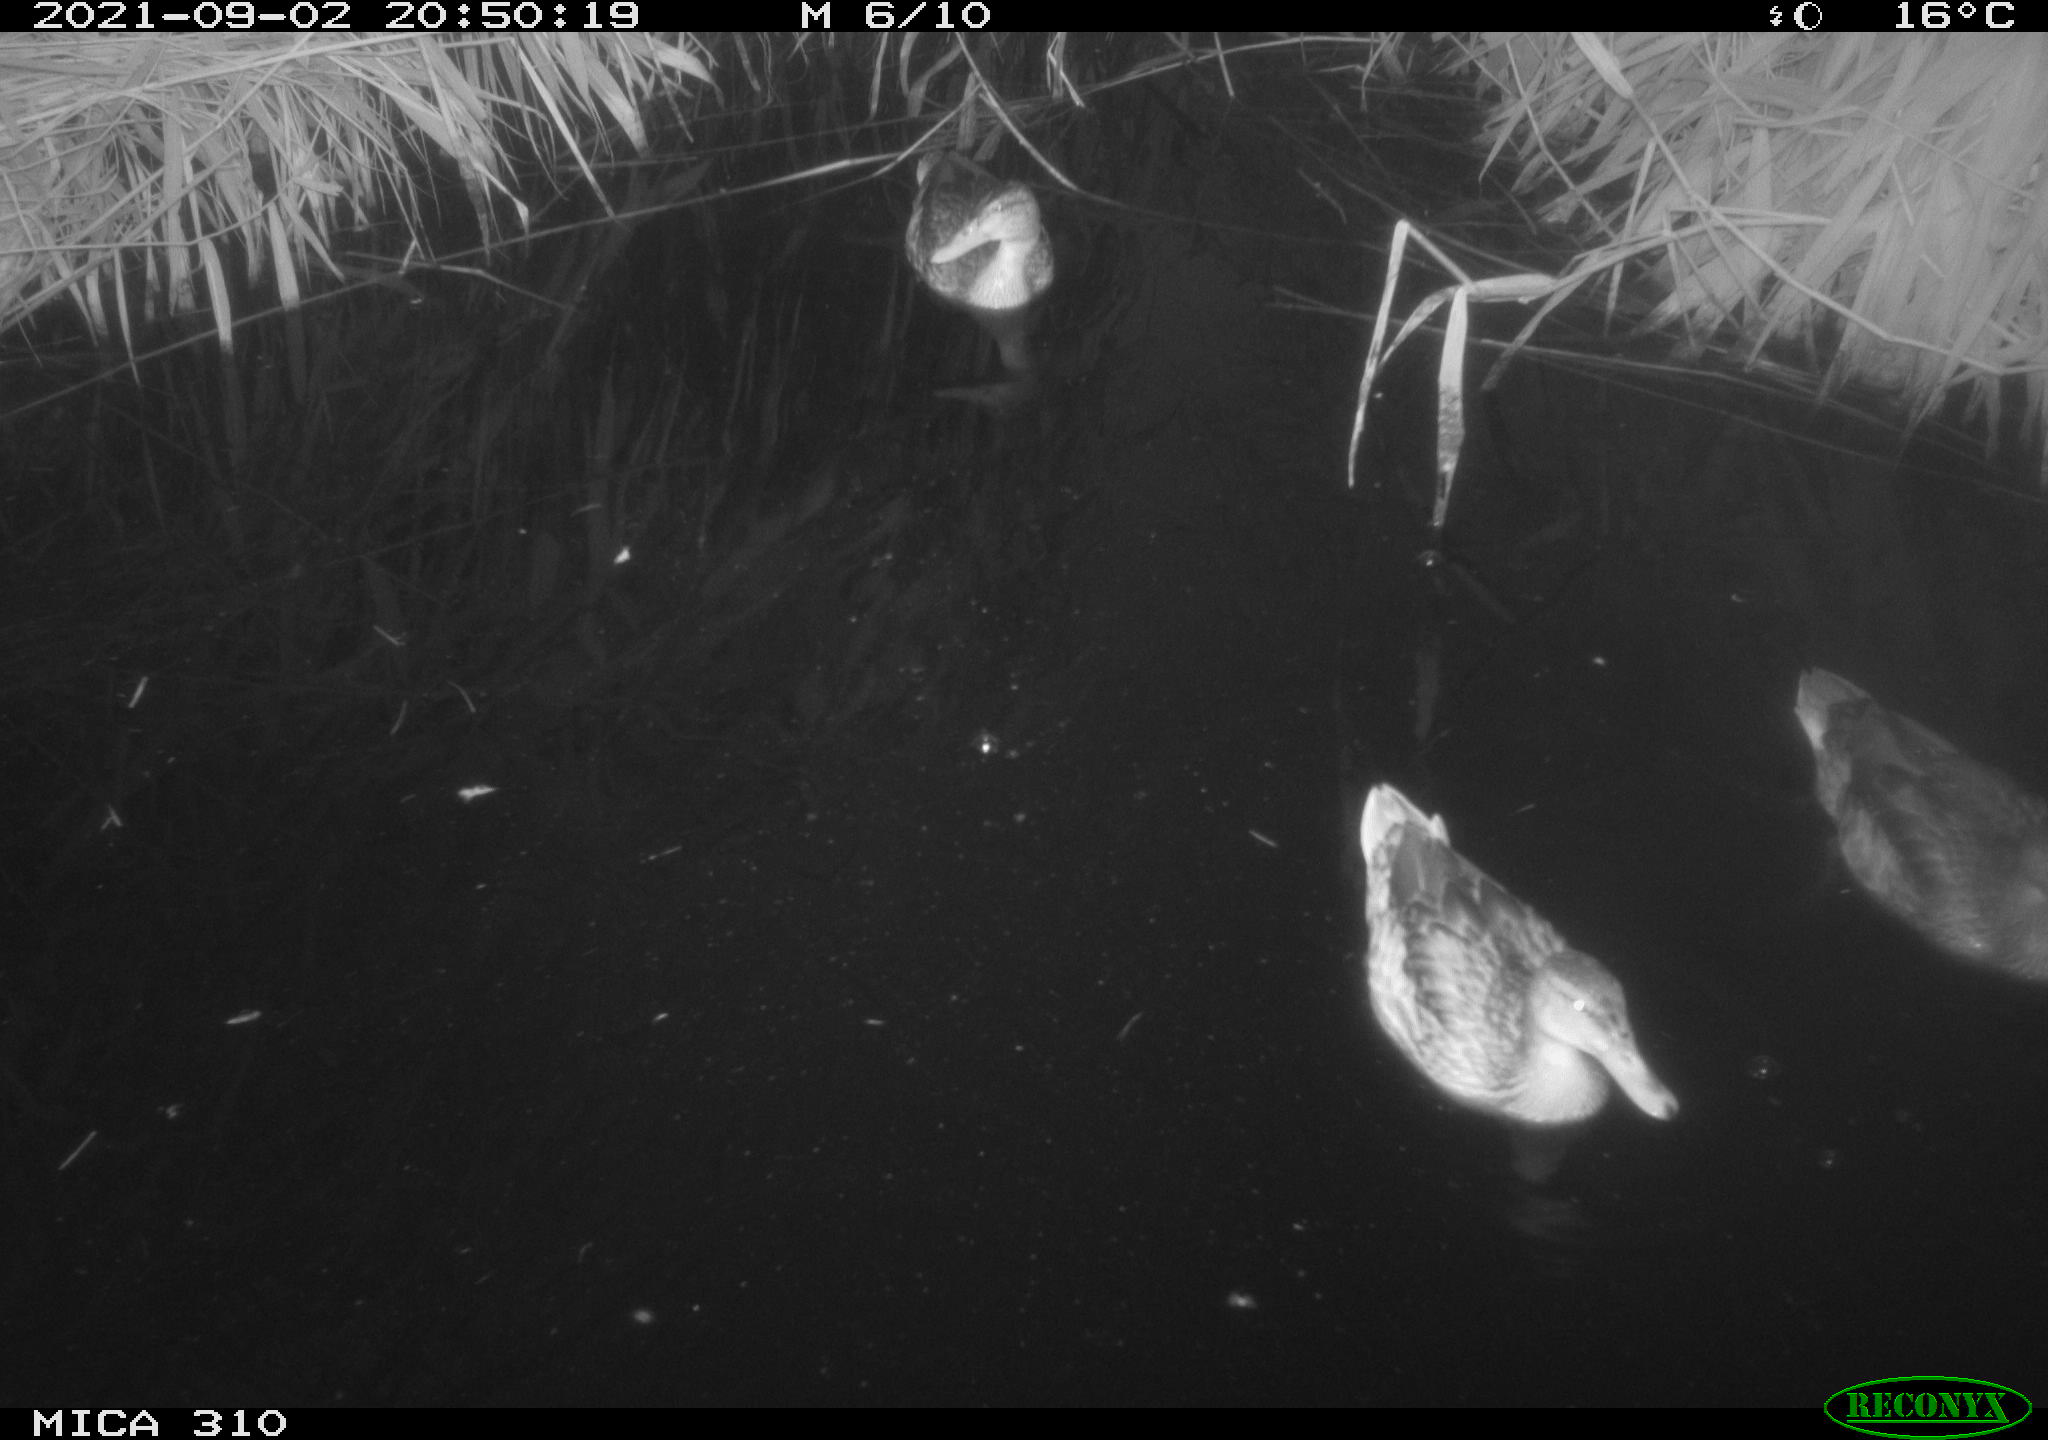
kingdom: Animalia
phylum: Chordata
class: Aves
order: Anseriformes
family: Anatidae
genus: Anas
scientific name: Anas platyrhynchos
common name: Mallard
